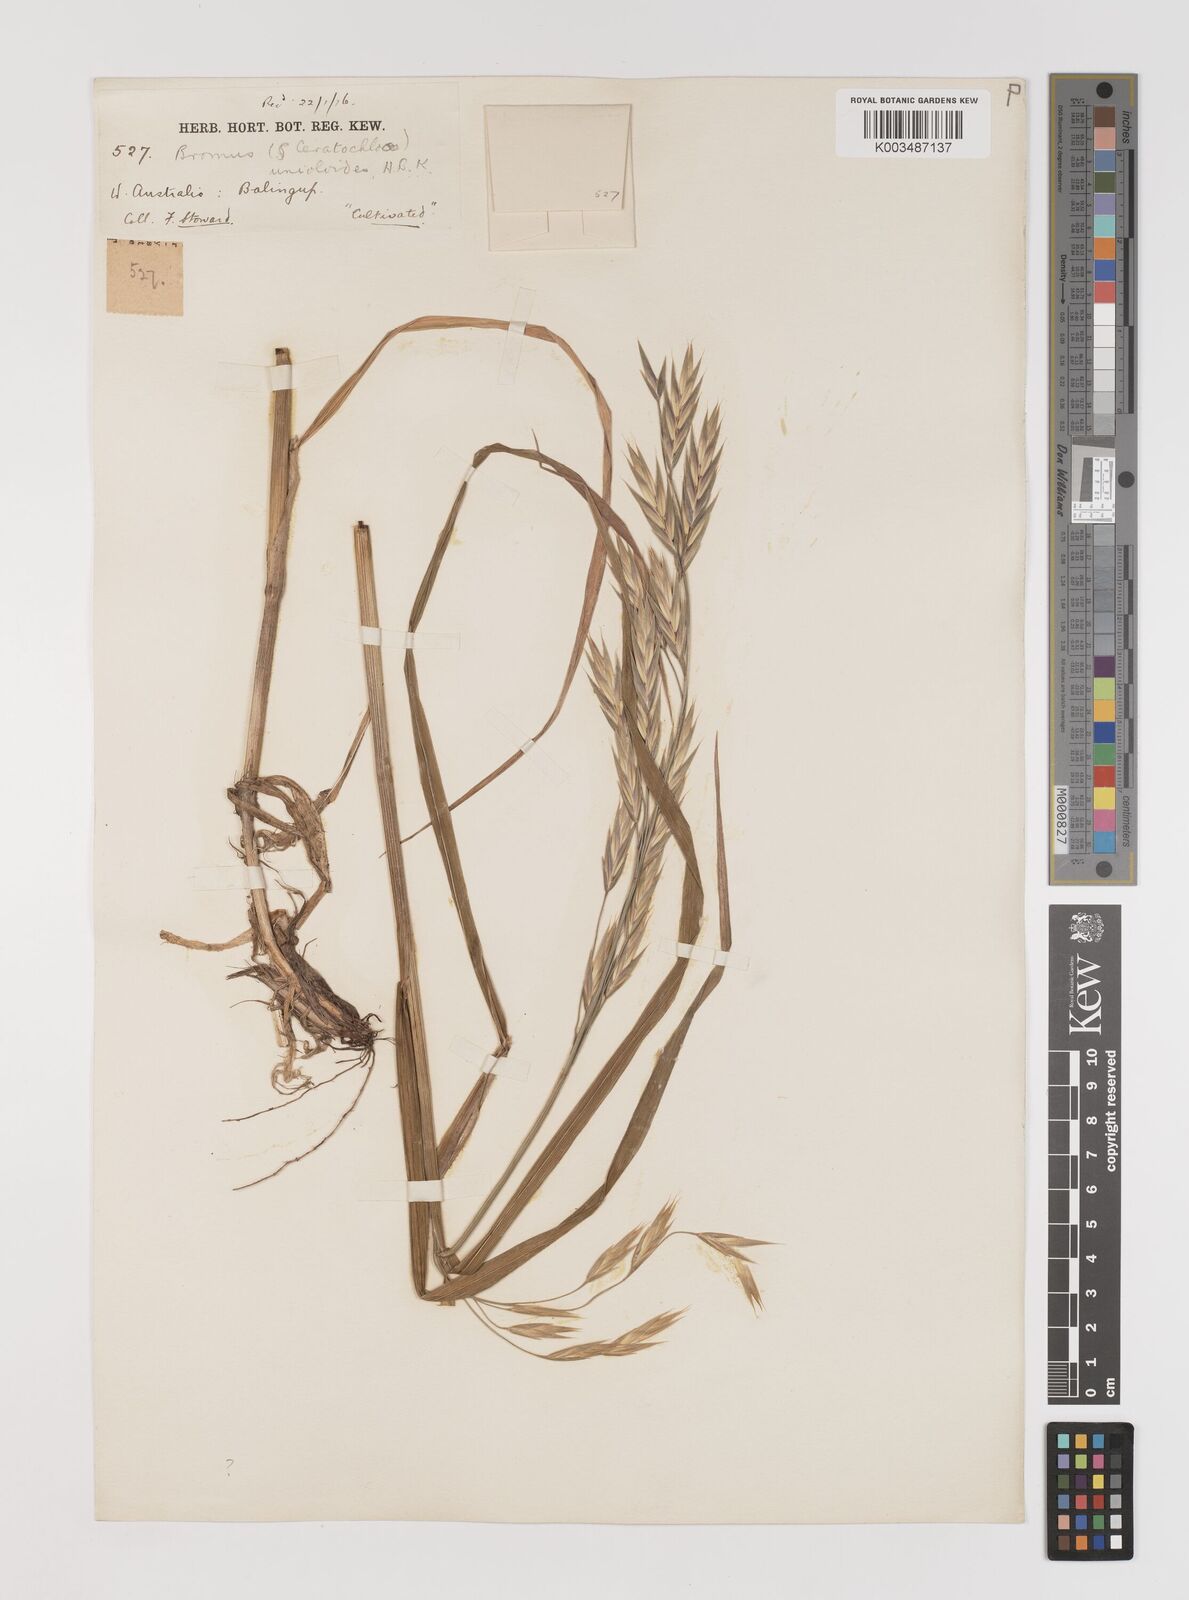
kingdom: Plantae
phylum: Tracheophyta
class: Liliopsida
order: Poales
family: Poaceae
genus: Bromus
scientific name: Bromus catharticus
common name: Rescuegrass
